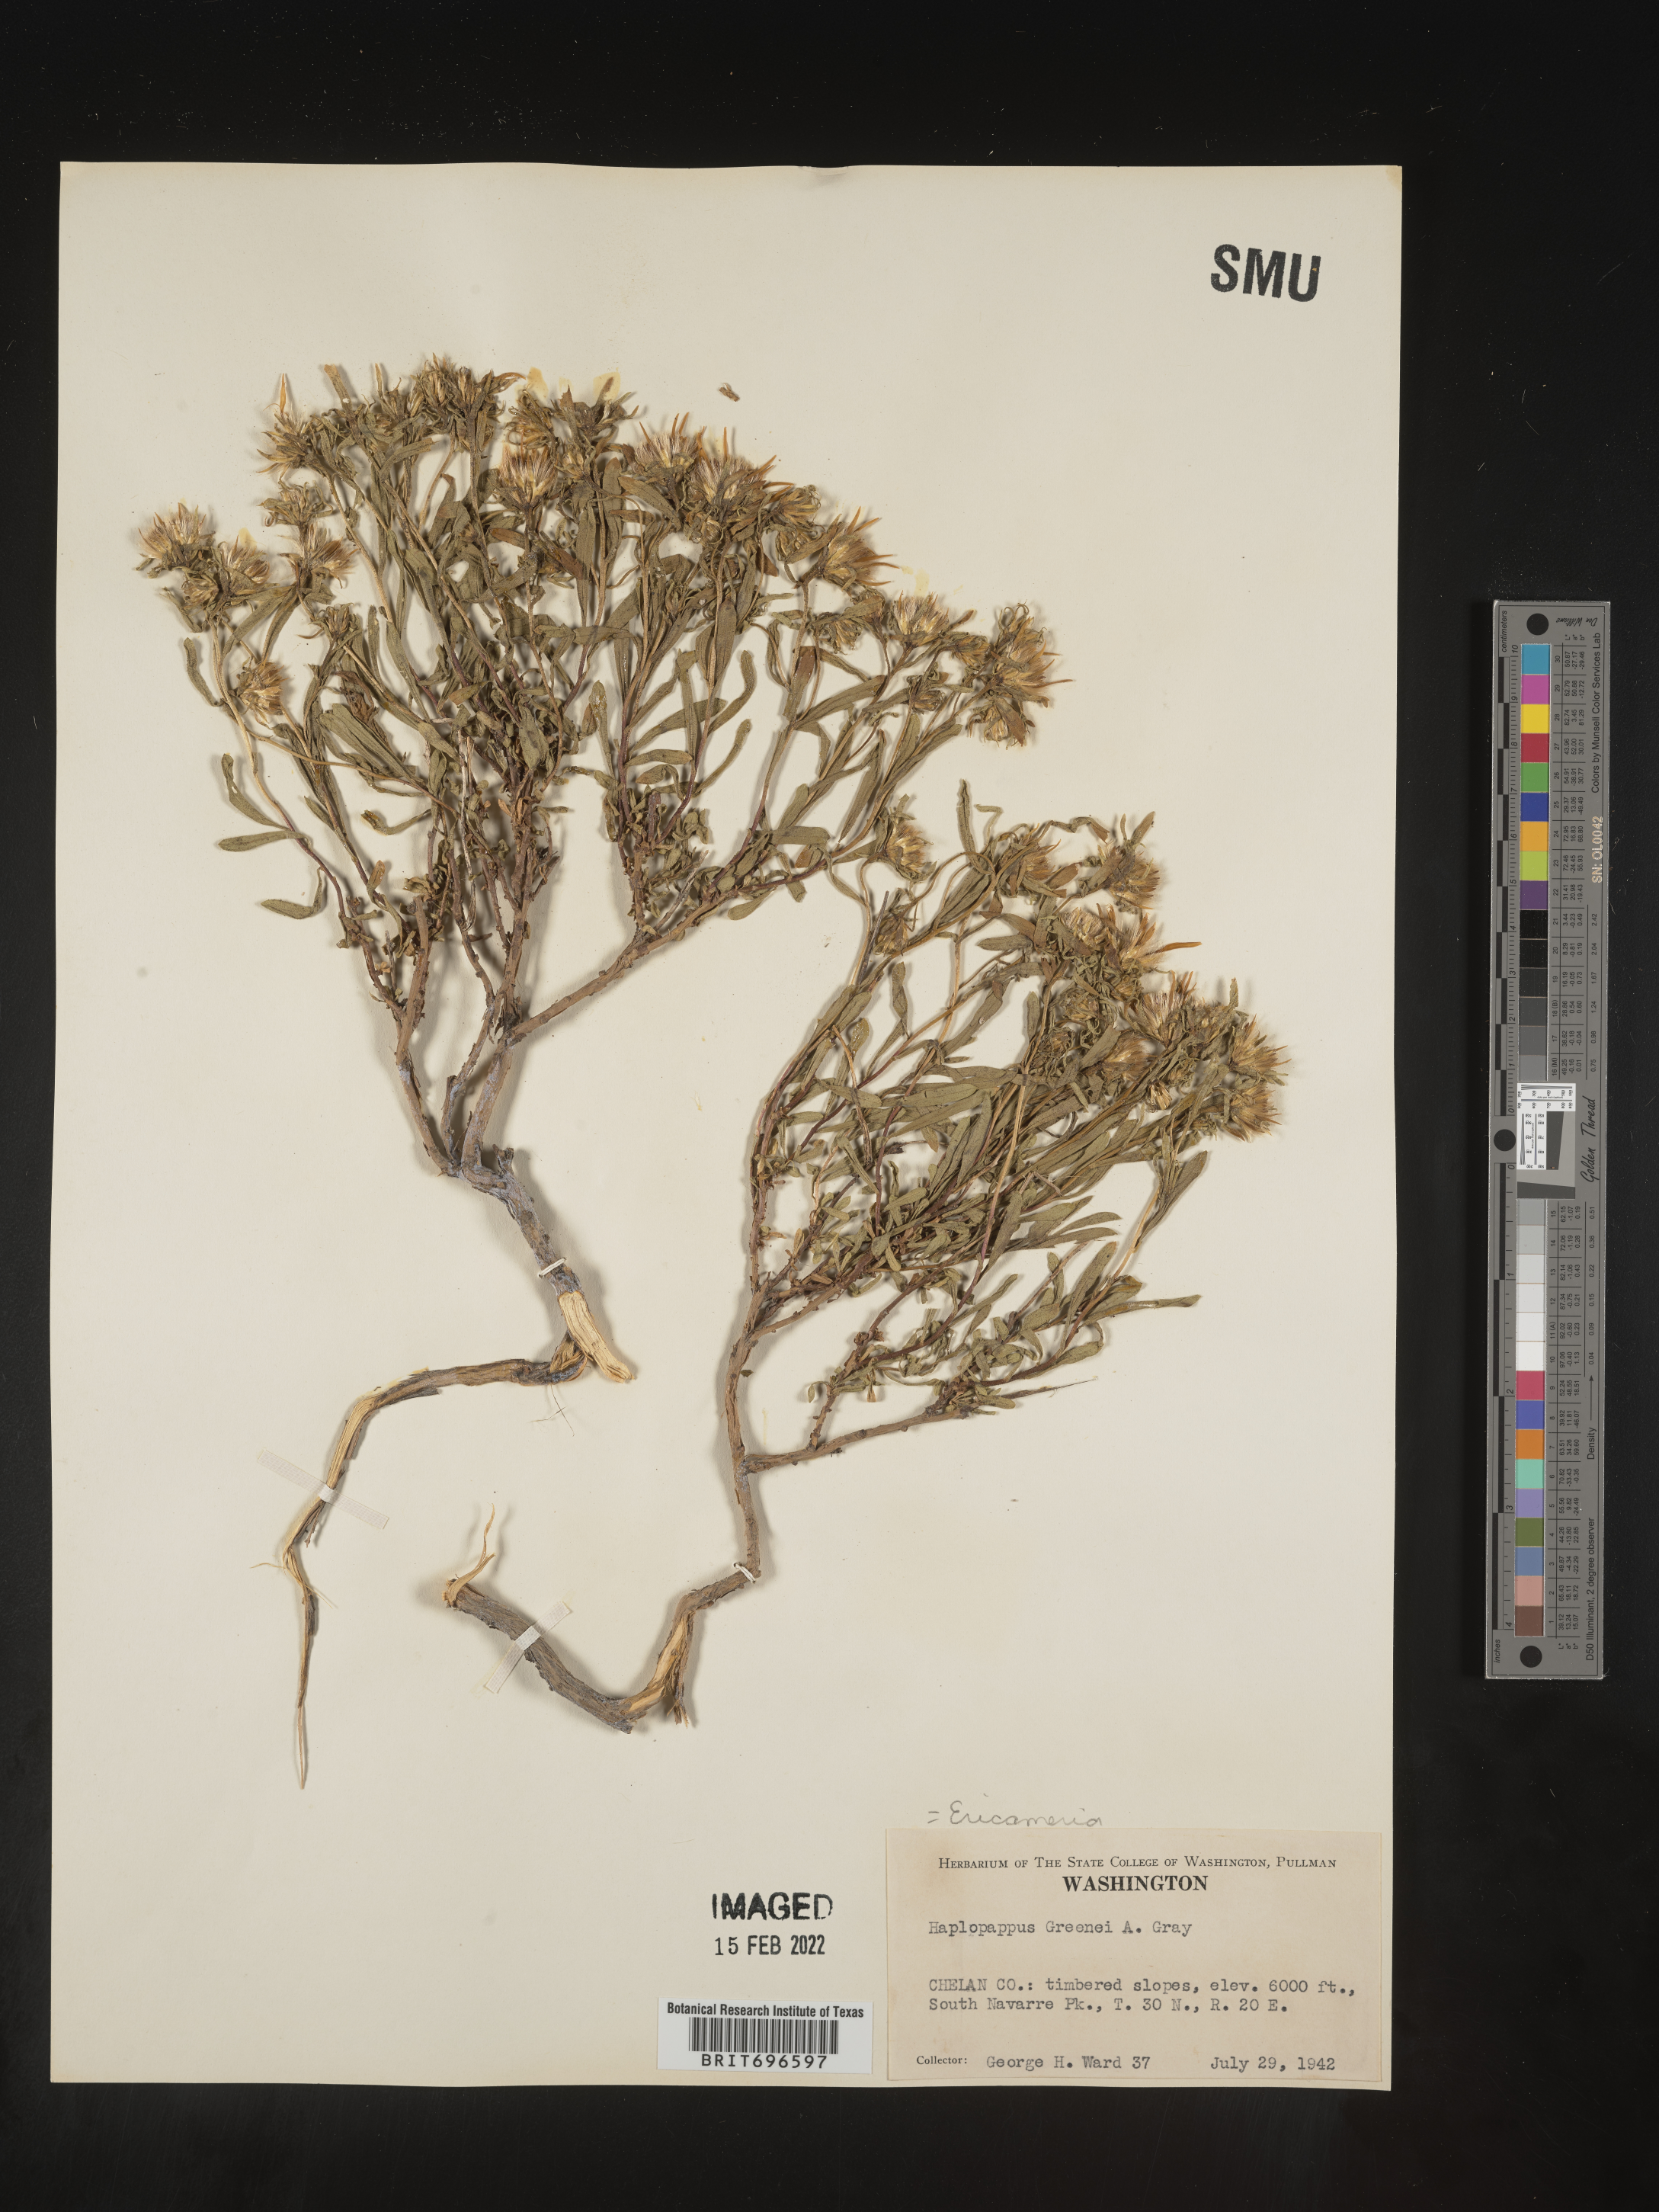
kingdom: Plantae
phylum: Tracheophyta
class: Magnoliopsida
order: Asterales
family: Asteraceae
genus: Ericameria
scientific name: Ericameria greenei
